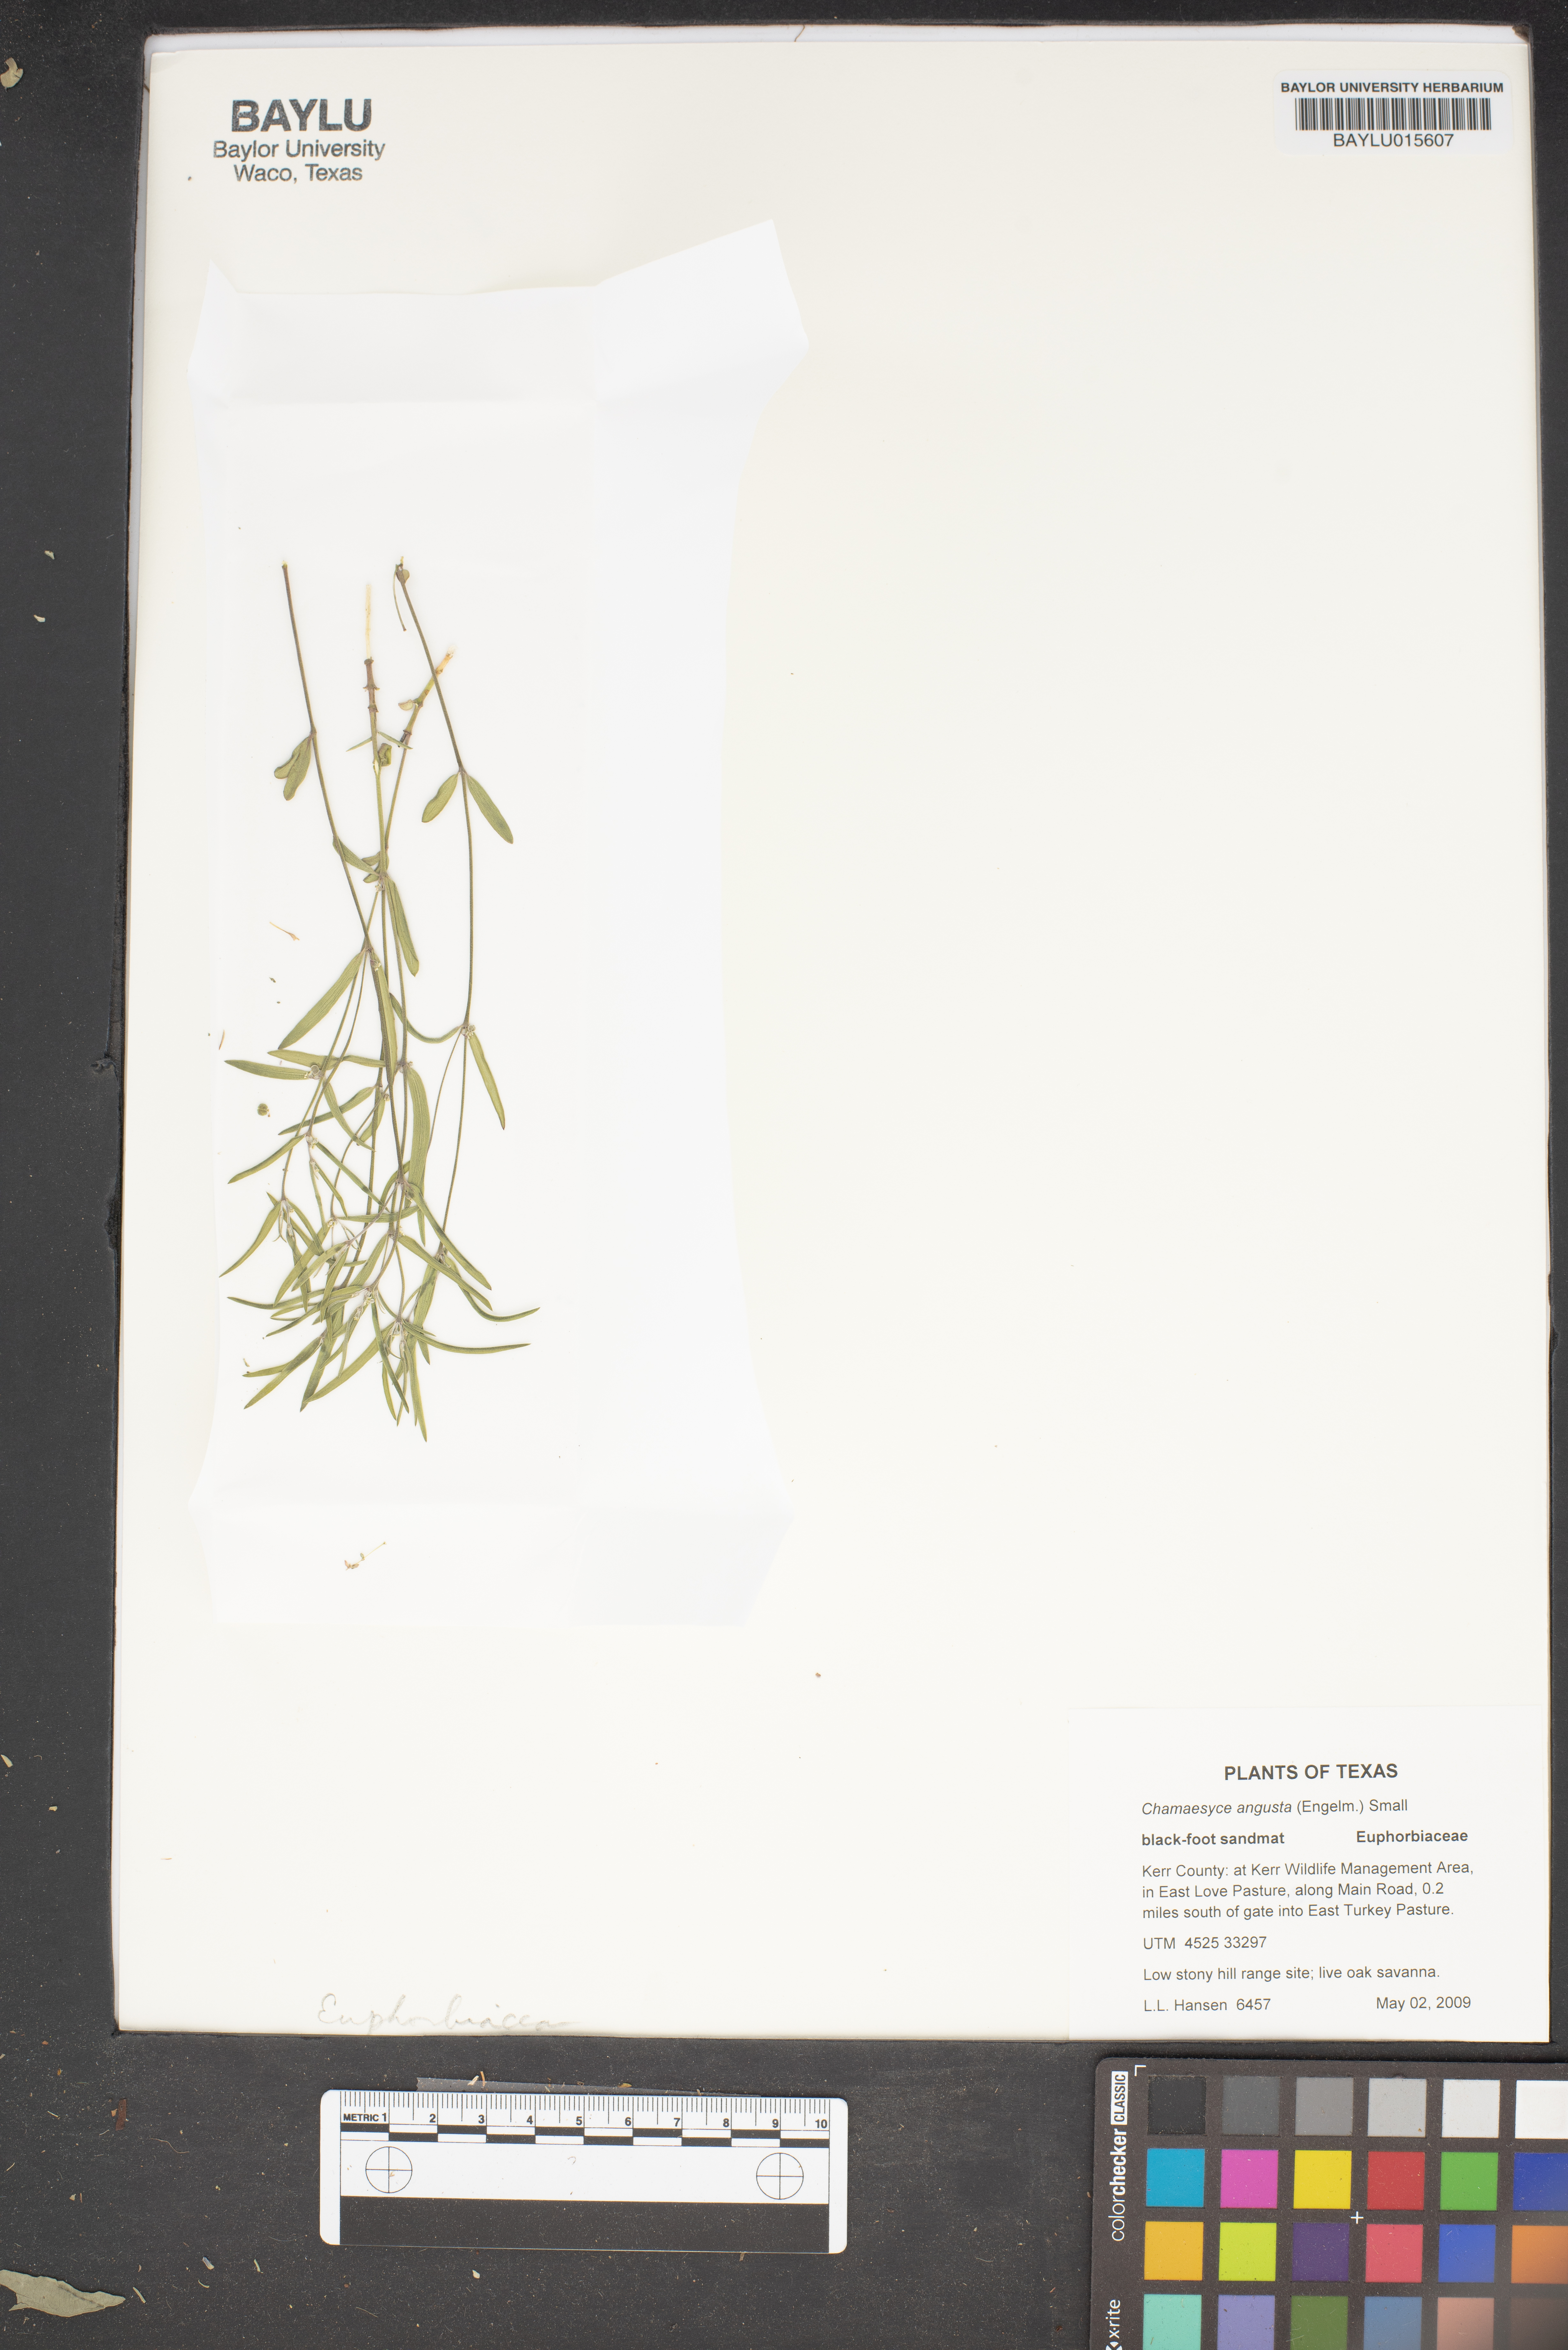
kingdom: Plantae
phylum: Tracheophyta
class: Magnoliopsida
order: Malpighiales
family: Euphorbiaceae
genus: Euphorbia
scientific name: Euphorbia angusta
